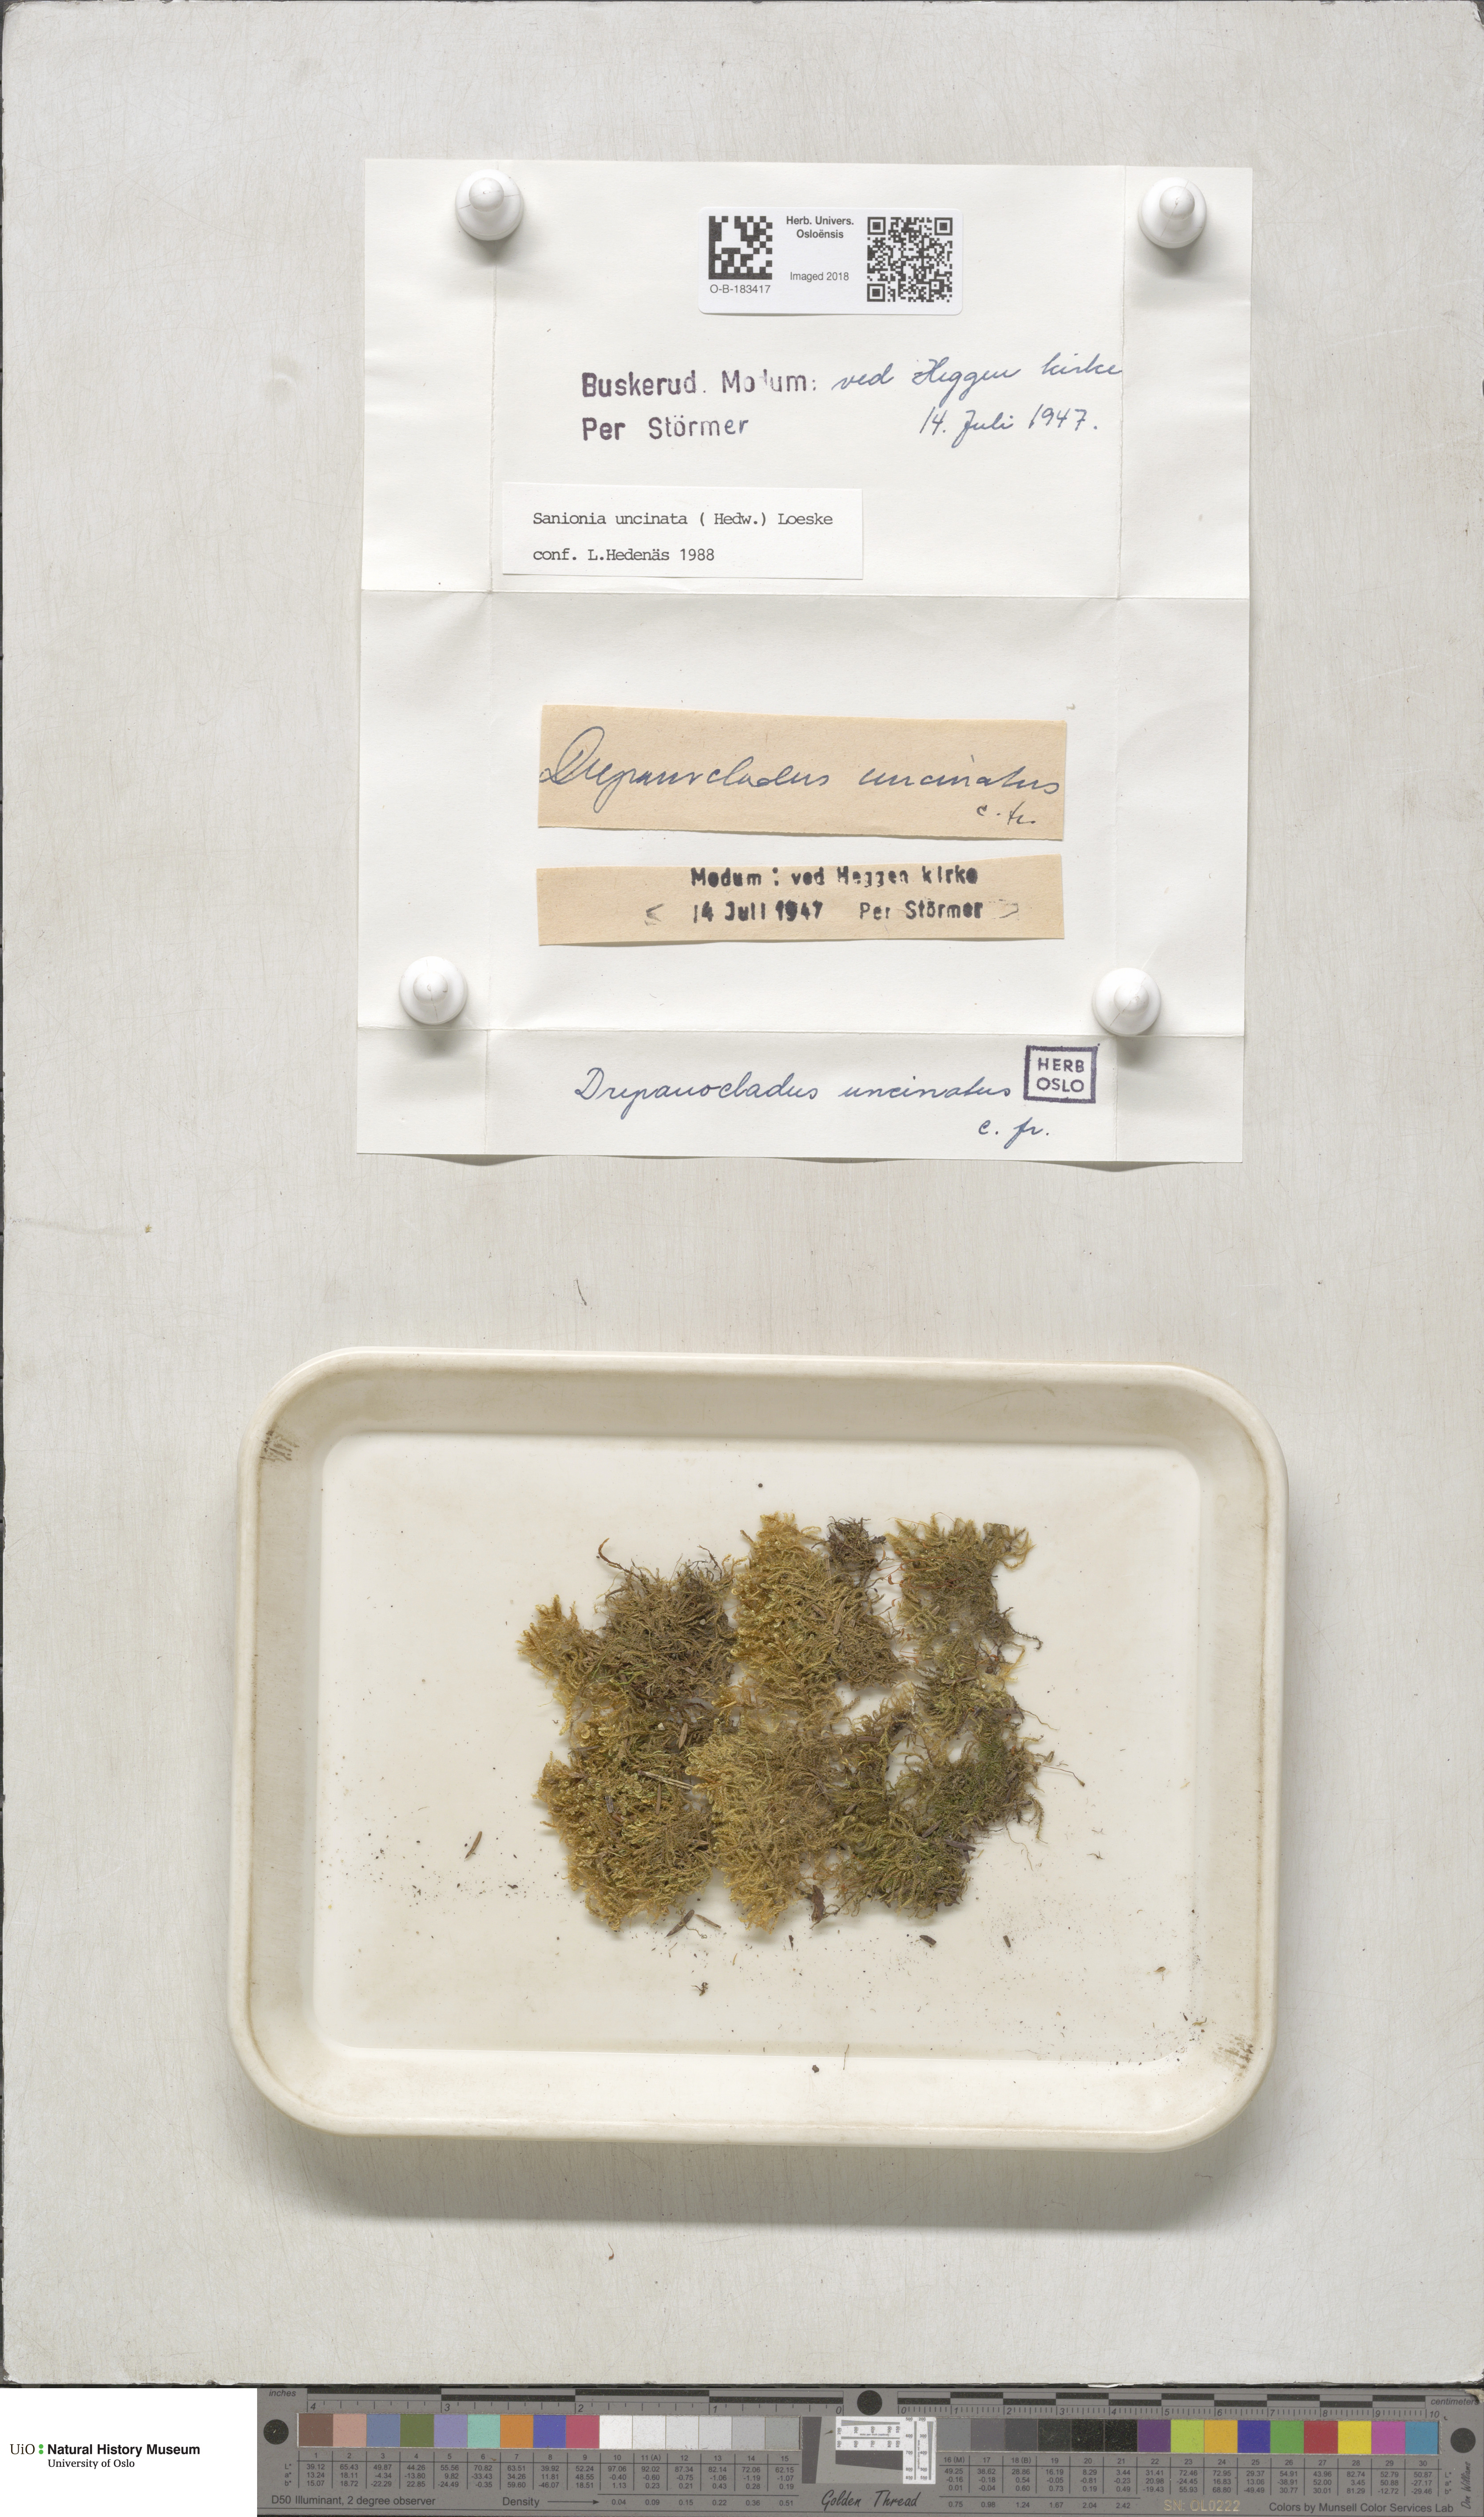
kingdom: Plantae
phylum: Bryophyta
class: Bryopsida
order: Hypnales
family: Scorpidiaceae
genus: Sanionia
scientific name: Sanionia uncinata
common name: Sickle moss
